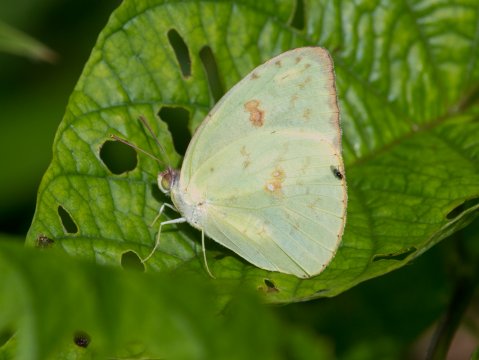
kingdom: Animalia
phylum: Arthropoda
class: Insecta
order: Lepidoptera
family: Pieridae
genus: Phoebis
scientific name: Phoebis sennae
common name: Cloudless Sulphur
